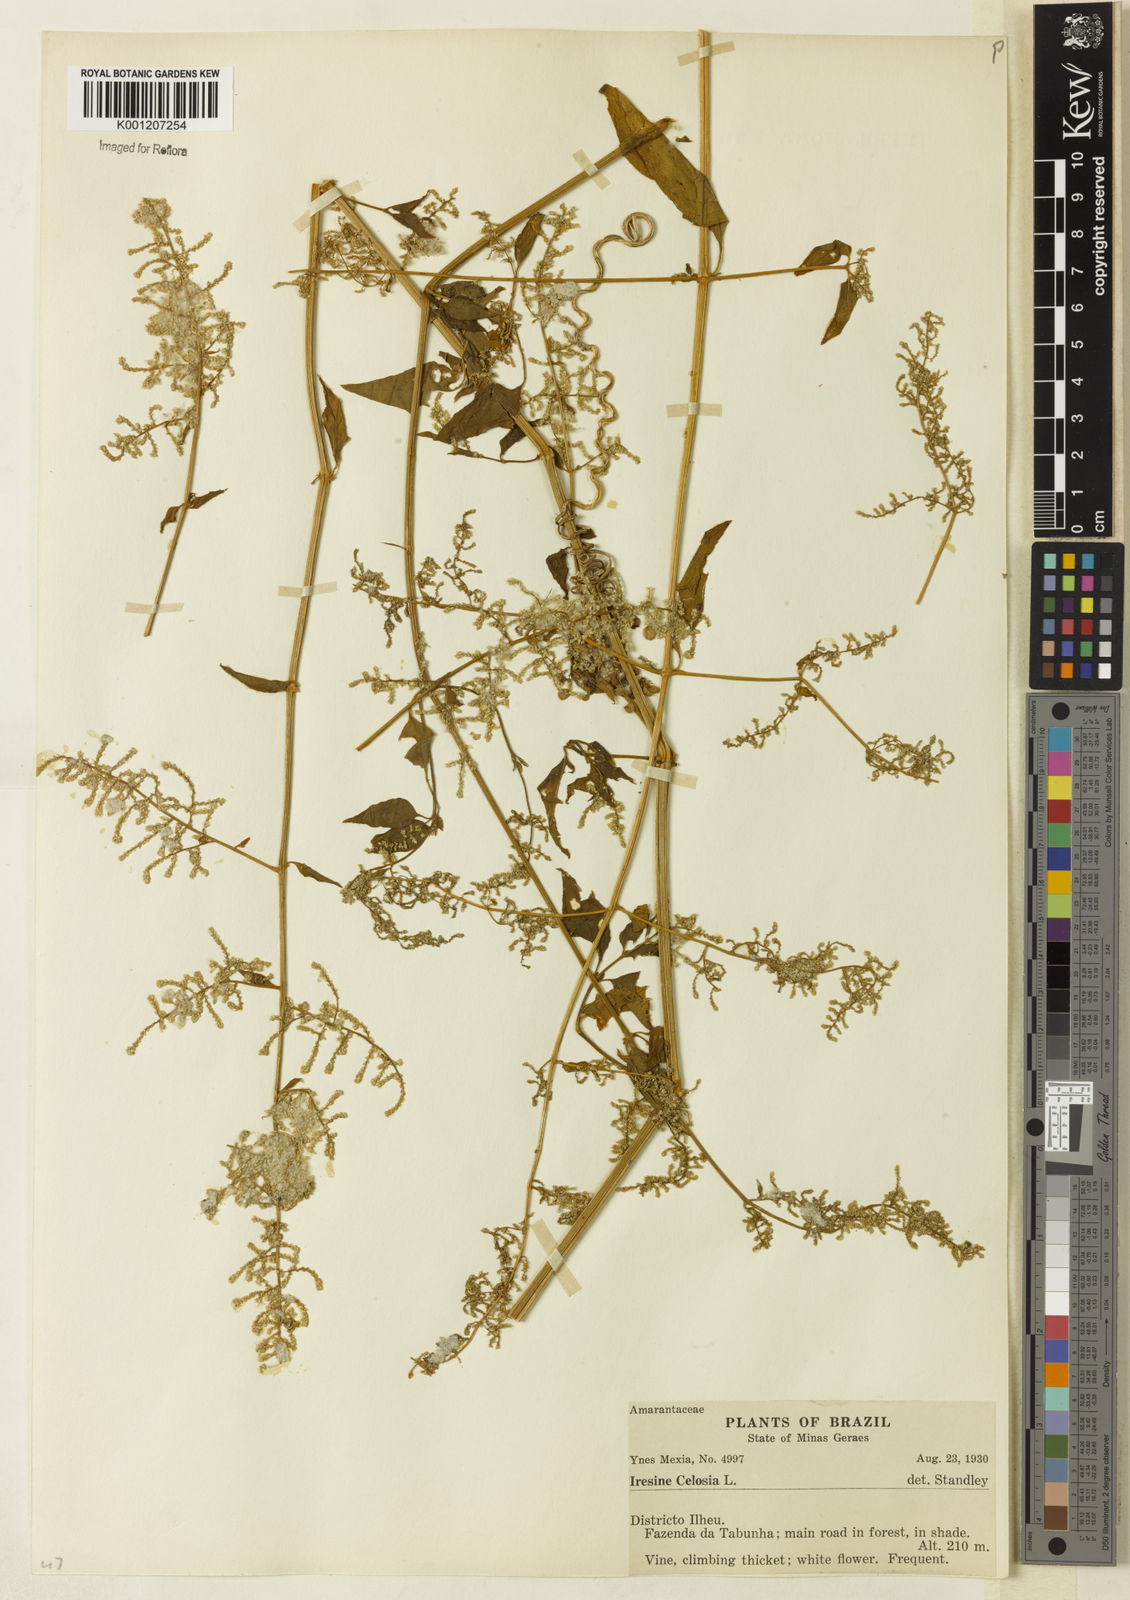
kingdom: Plantae
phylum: Tracheophyta
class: Magnoliopsida
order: Caryophyllales
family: Amaranthaceae
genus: Iresine
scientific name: Iresine rhizomatosa
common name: Juda's-bush
